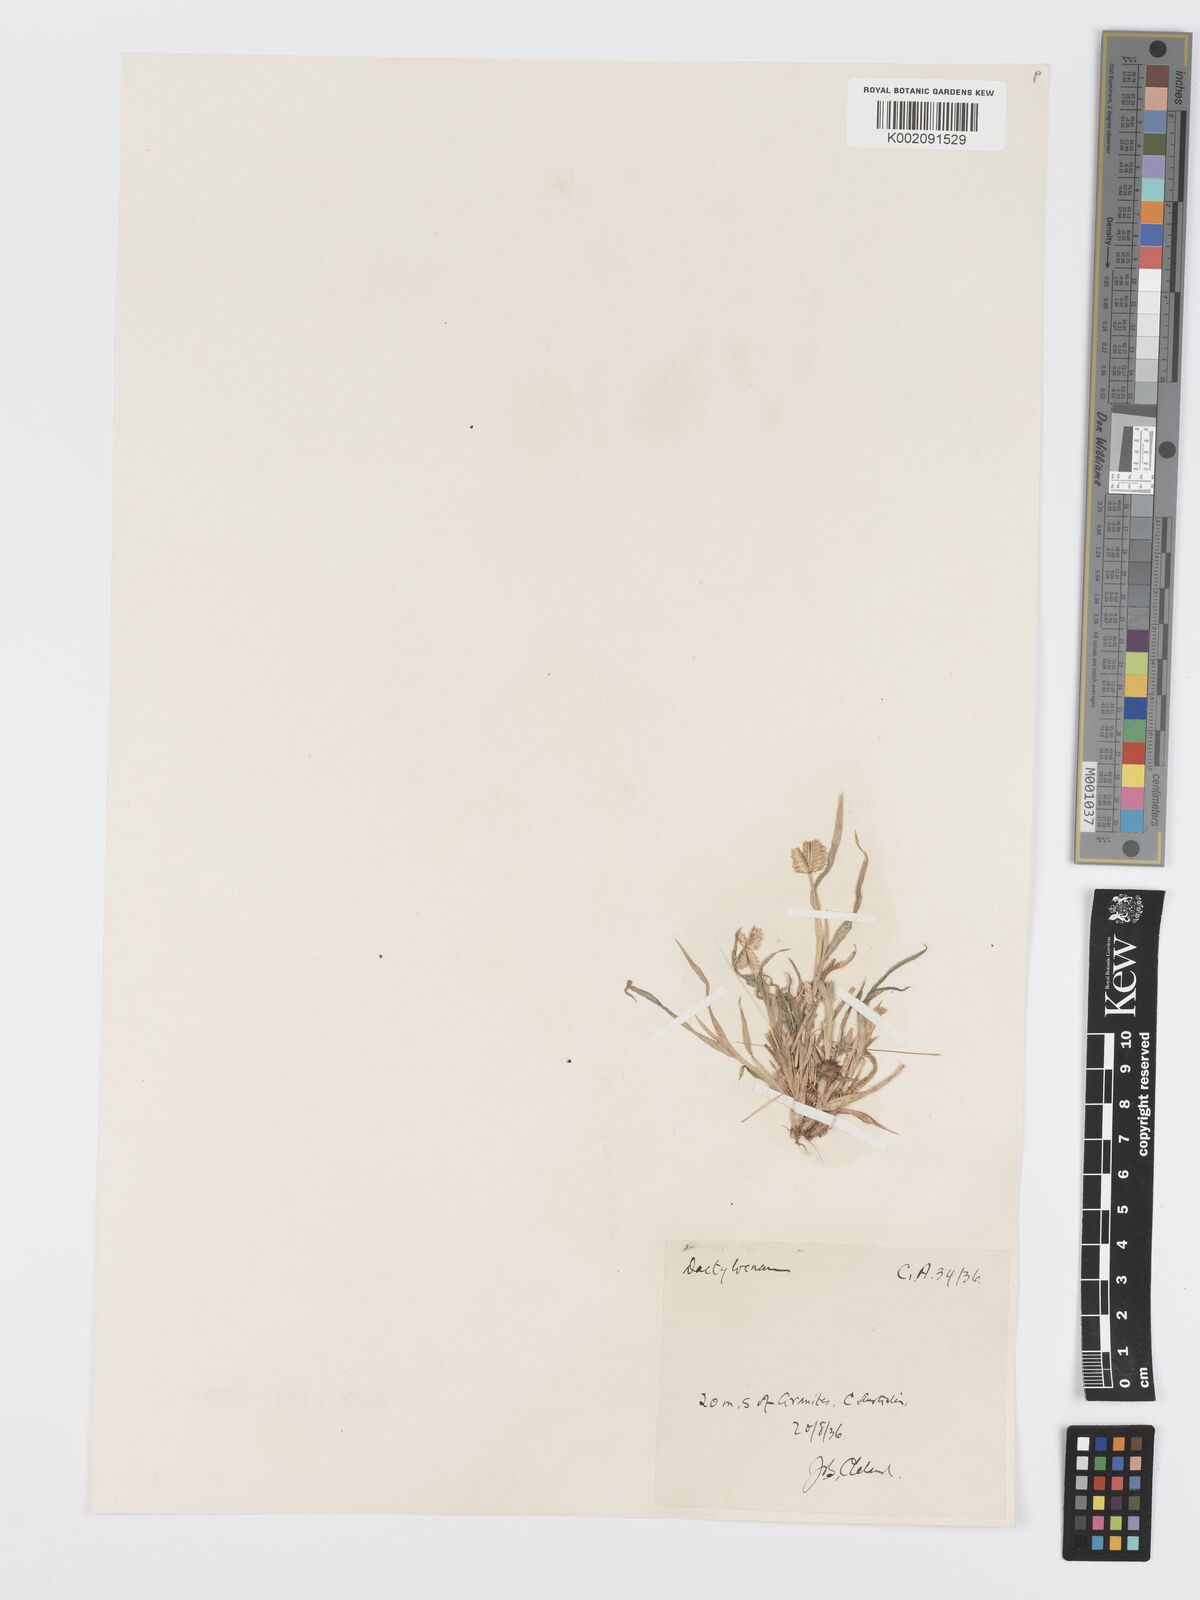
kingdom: Plantae
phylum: Tracheophyta
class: Liliopsida
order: Poales
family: Poaceae
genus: Dactyloctenium
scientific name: Dactyloctenium radulans
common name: Button-grass
